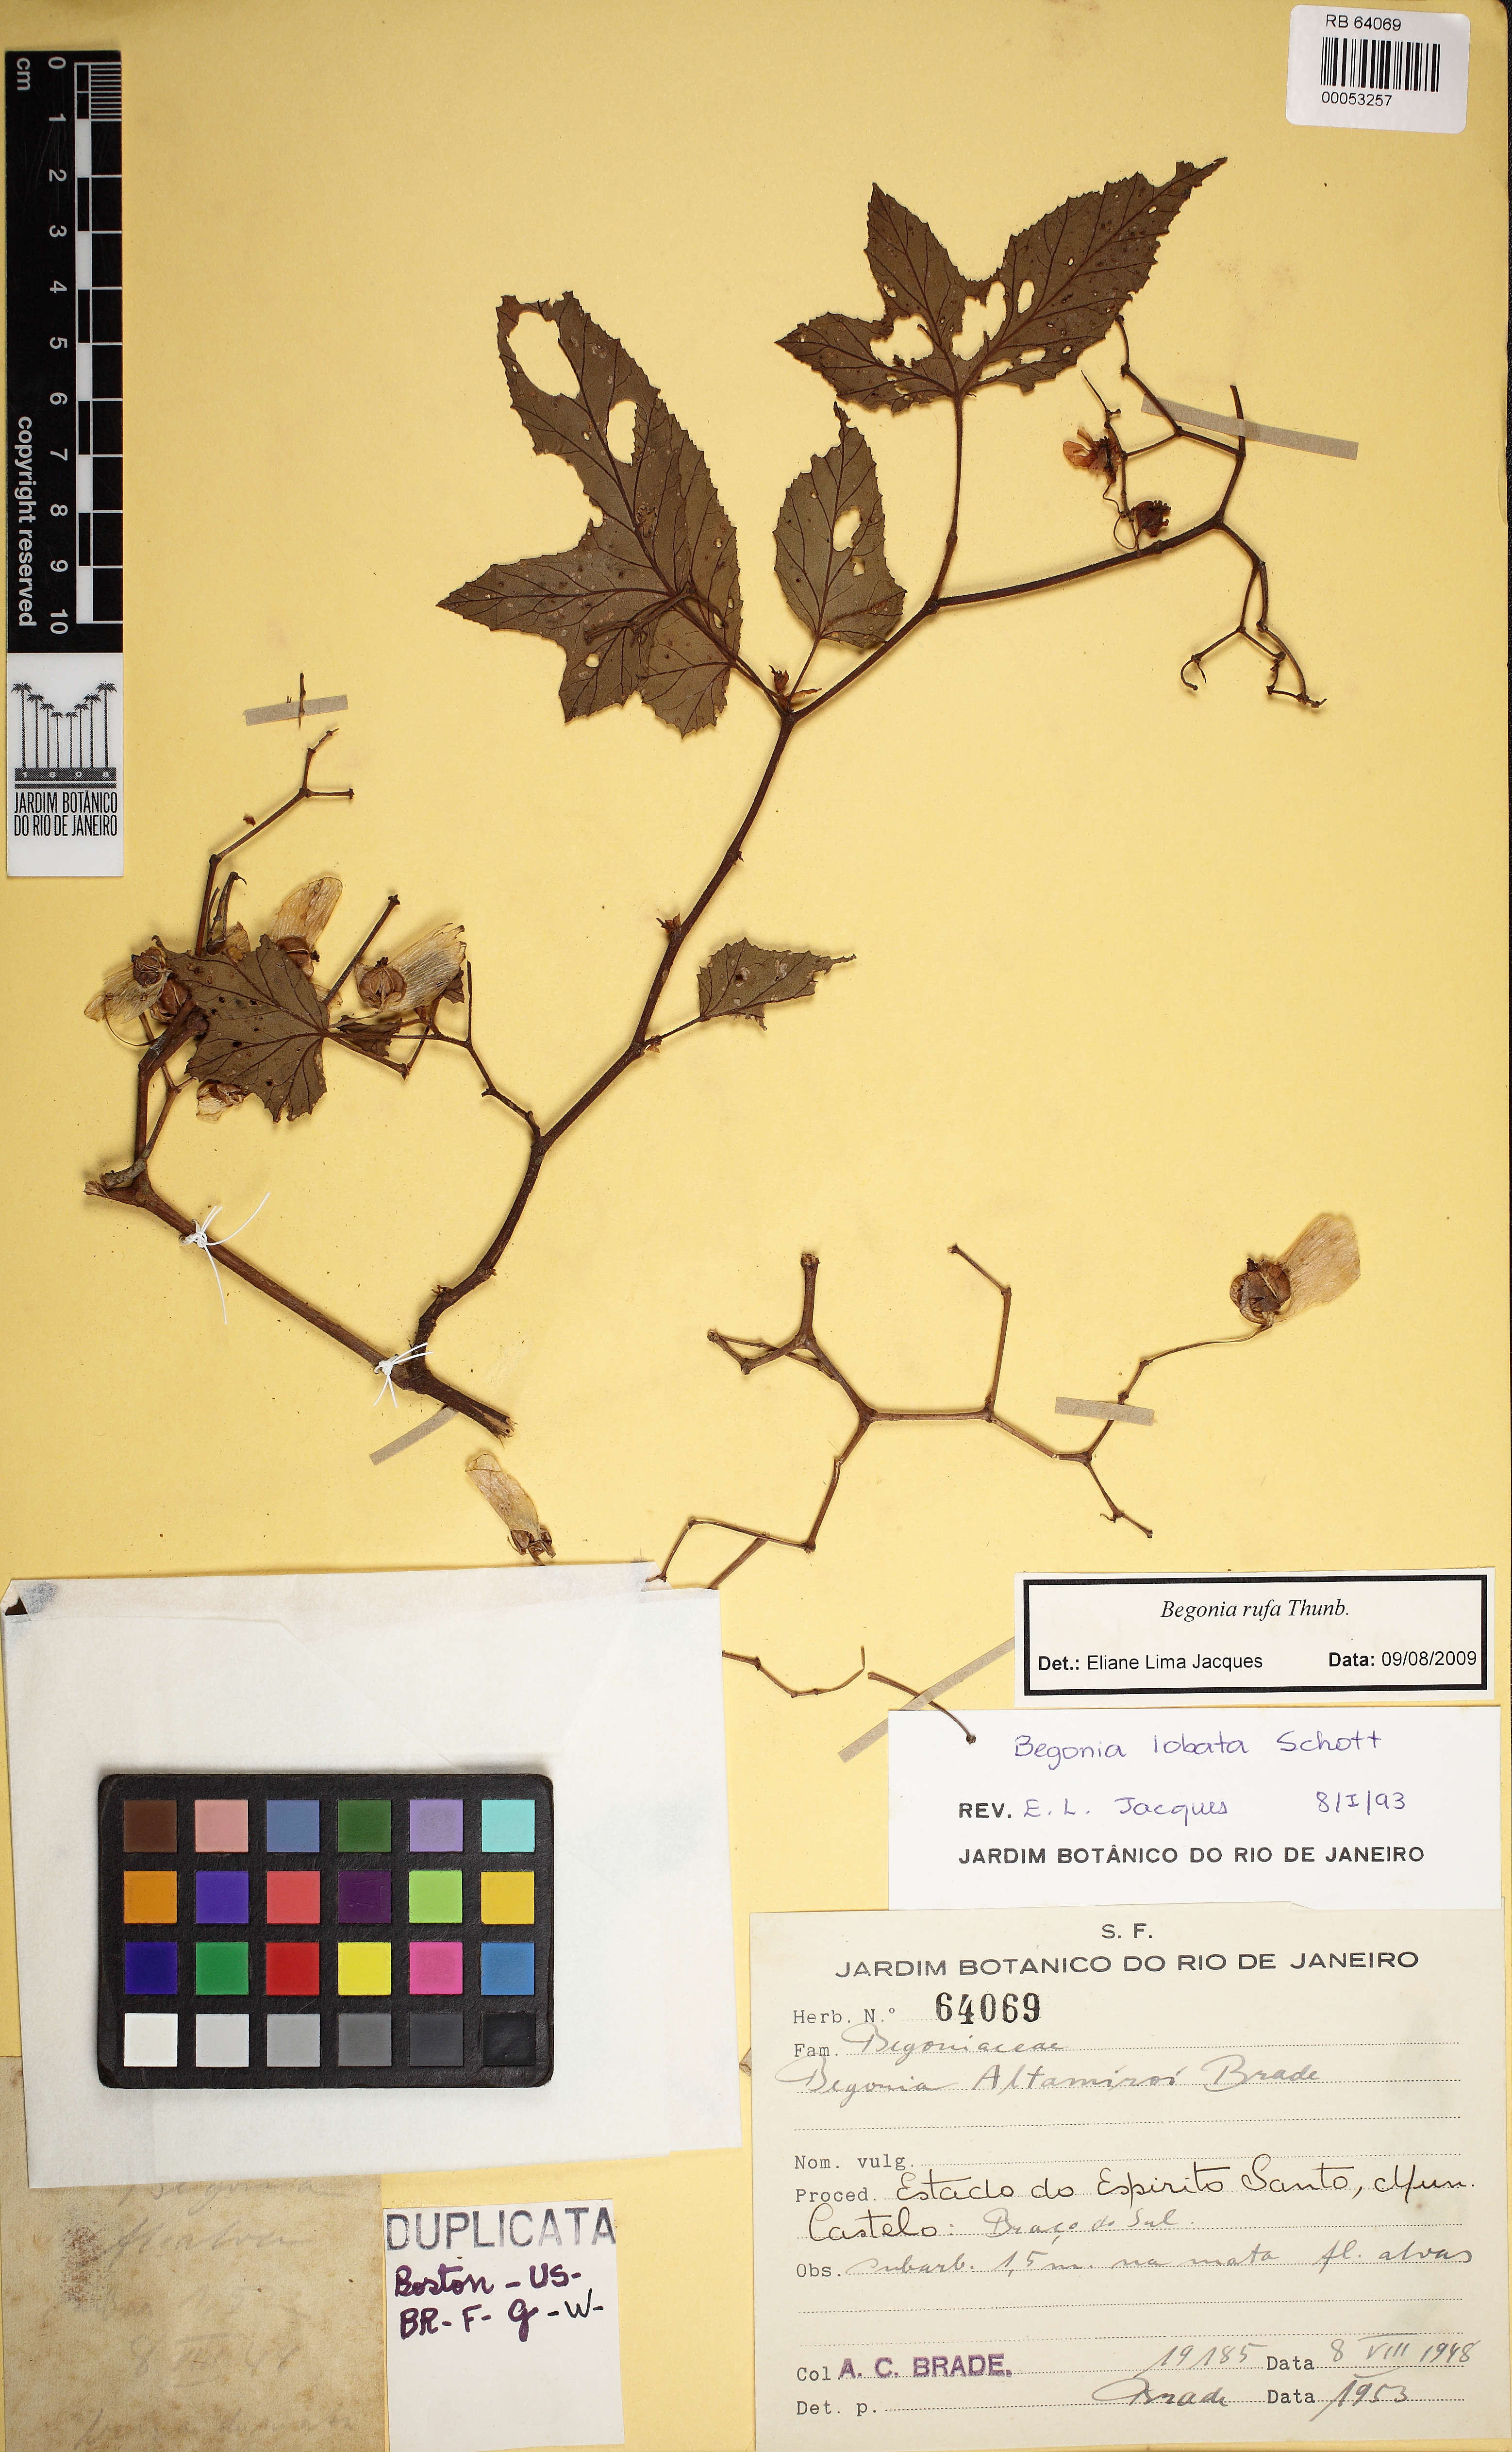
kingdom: Plantae
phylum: Tracheophyta
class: Magnoliopsida
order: Cucurbitales
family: Begoniaceae
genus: Begonia
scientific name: Begonia rufa
